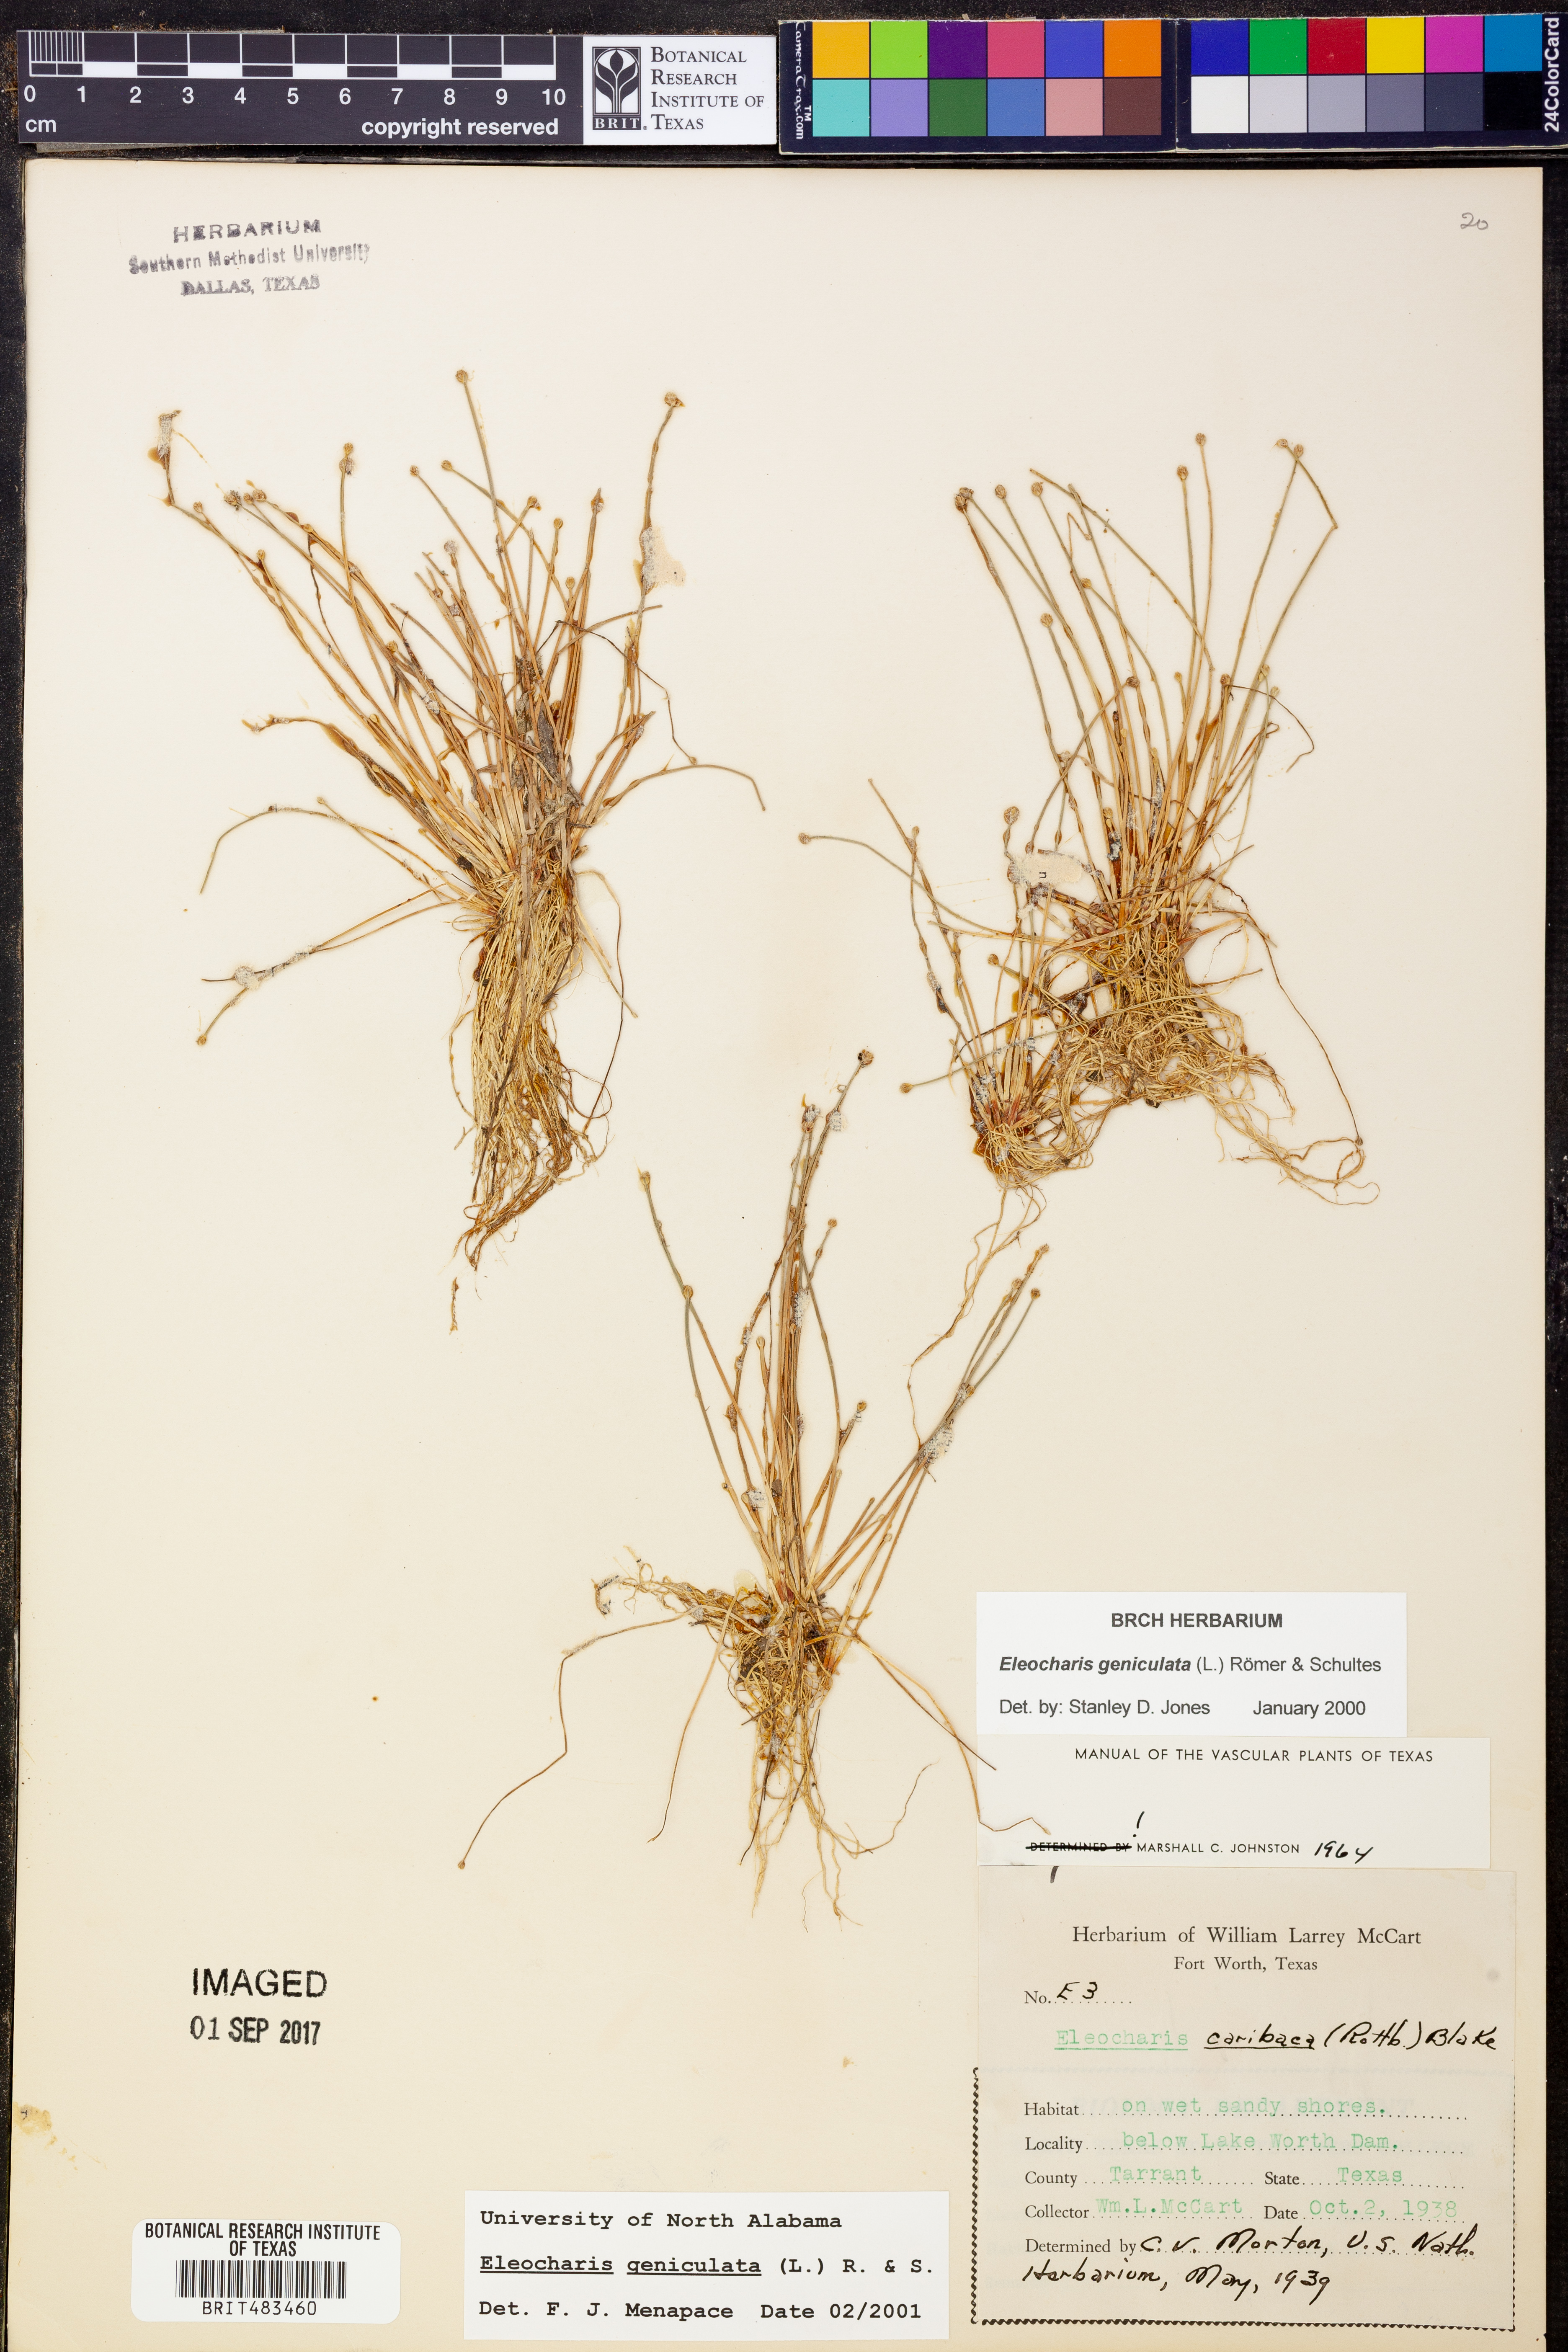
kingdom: Plantae
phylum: Tracheophyta
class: Liliopsida
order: Poales
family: Cyperaceae
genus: Eleocharis
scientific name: Eleocharis geniculata
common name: Canada spikesedge
